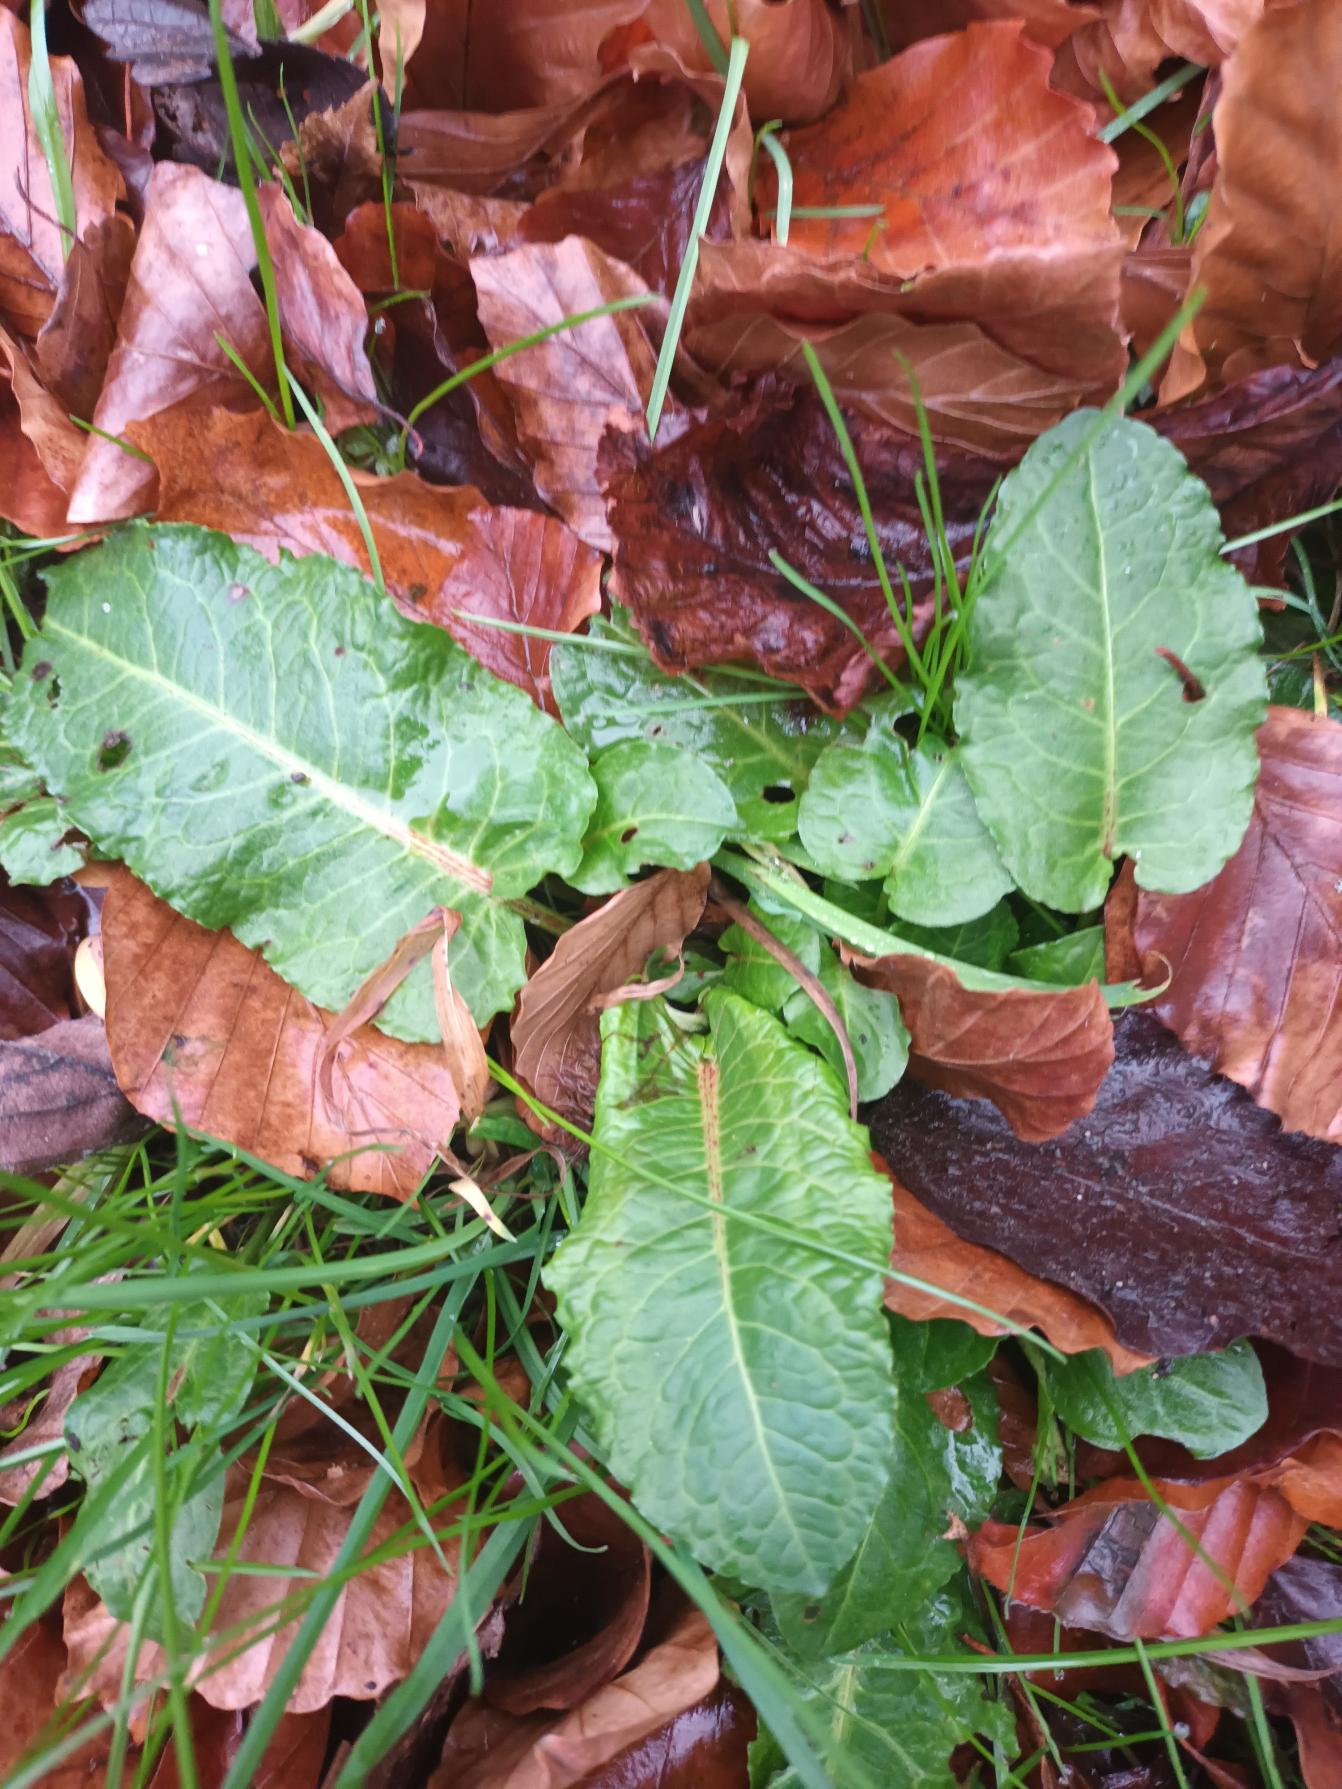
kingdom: Plantae
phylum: Tracheophyta
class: Magnoliopsida
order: Caryophyllales
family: Polygonaceae
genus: Rumex
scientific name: Rumex obtusifolius
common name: Butbladet skræppe
